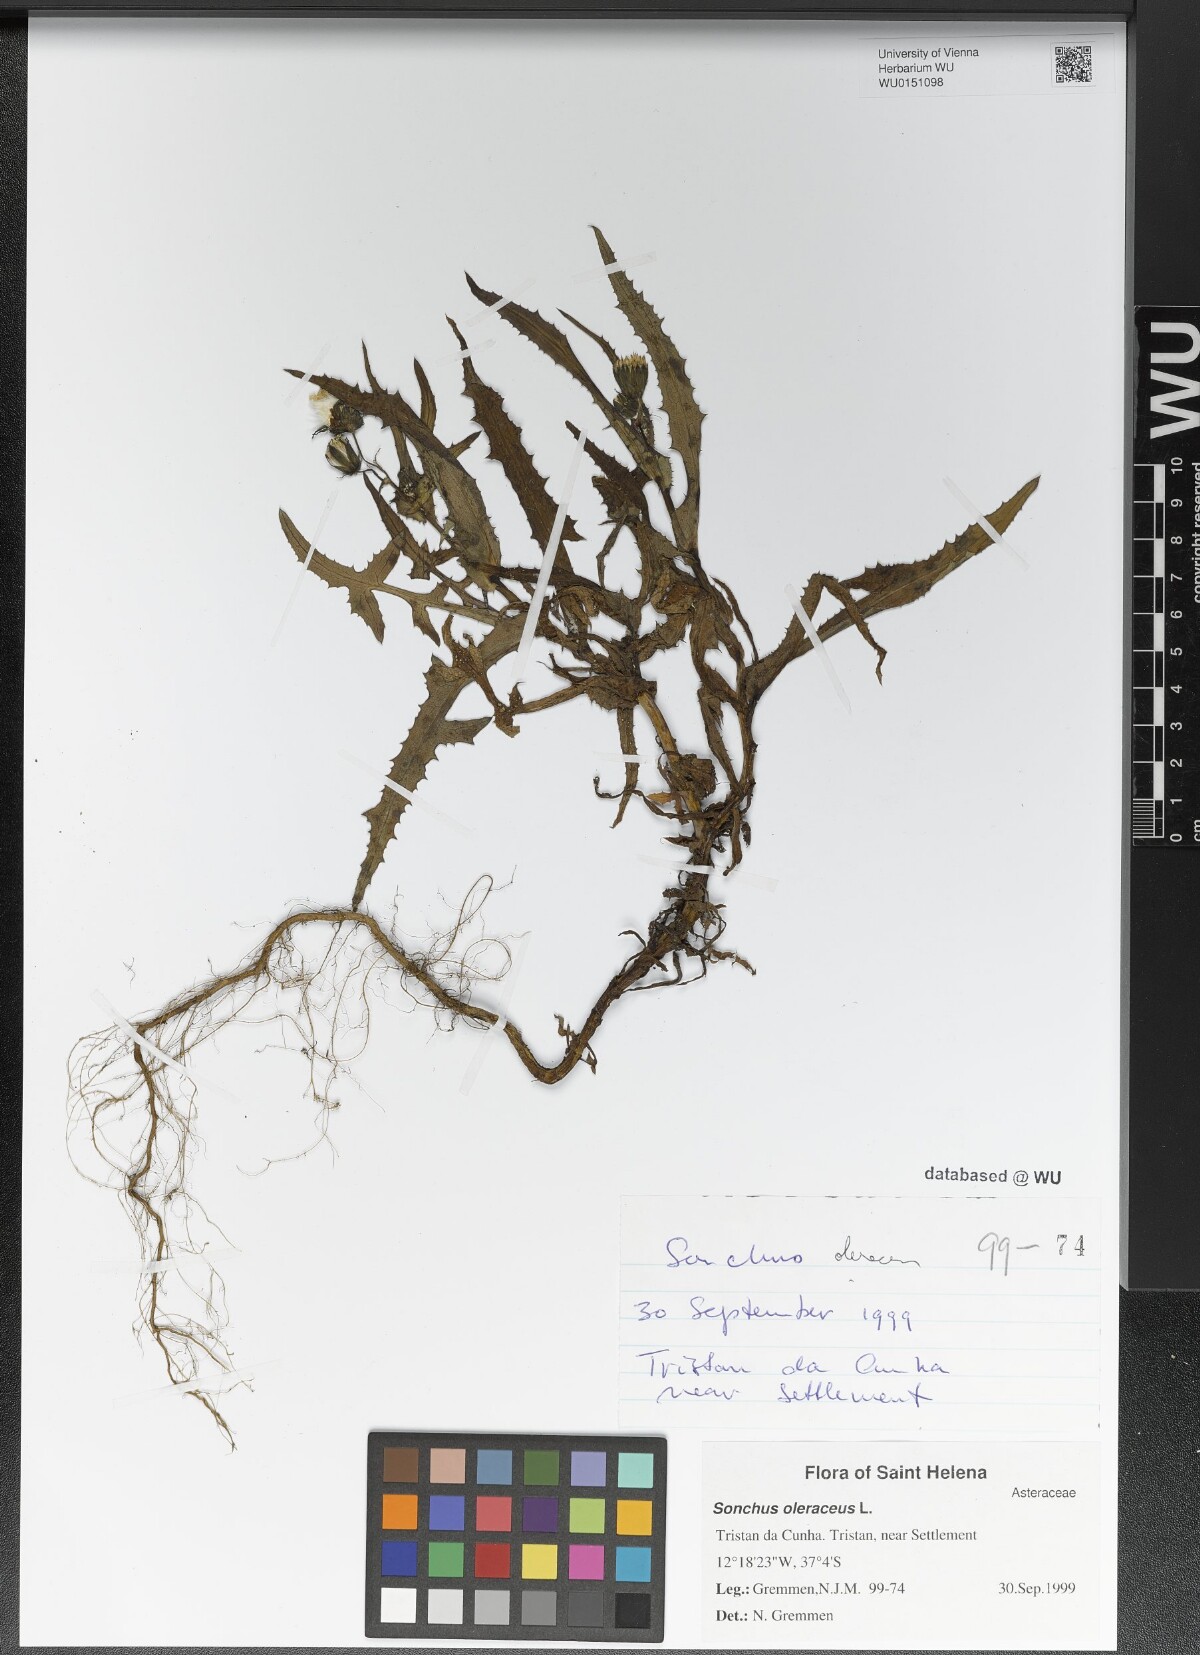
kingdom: Plantae
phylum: Tracheophyta
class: Magnoliopsida
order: Asterales
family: Asteraceae
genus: Sonchus
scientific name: Sonchus oleraceus
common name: Common sowthistle
